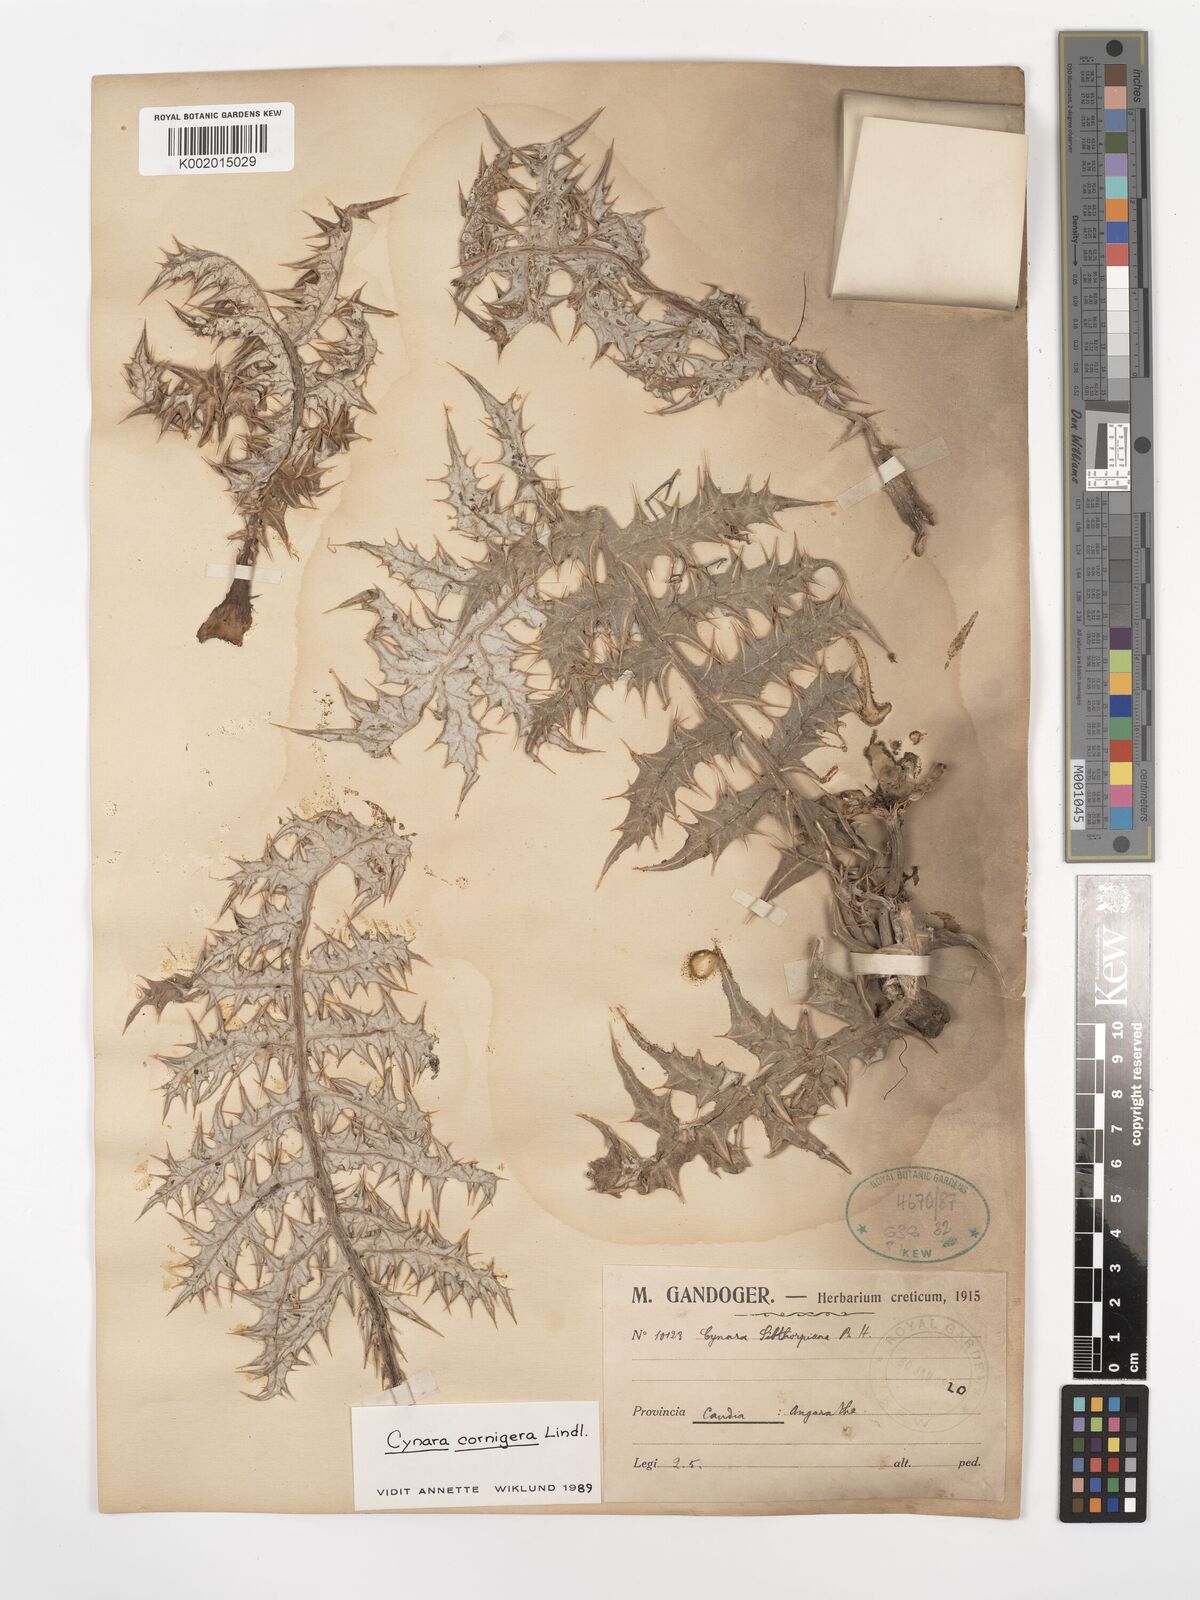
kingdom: Plantae
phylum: Tracheophyta
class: Magnoliopsida
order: Asterales
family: Asteraceae
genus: Cynara
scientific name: Cynara cornigera
